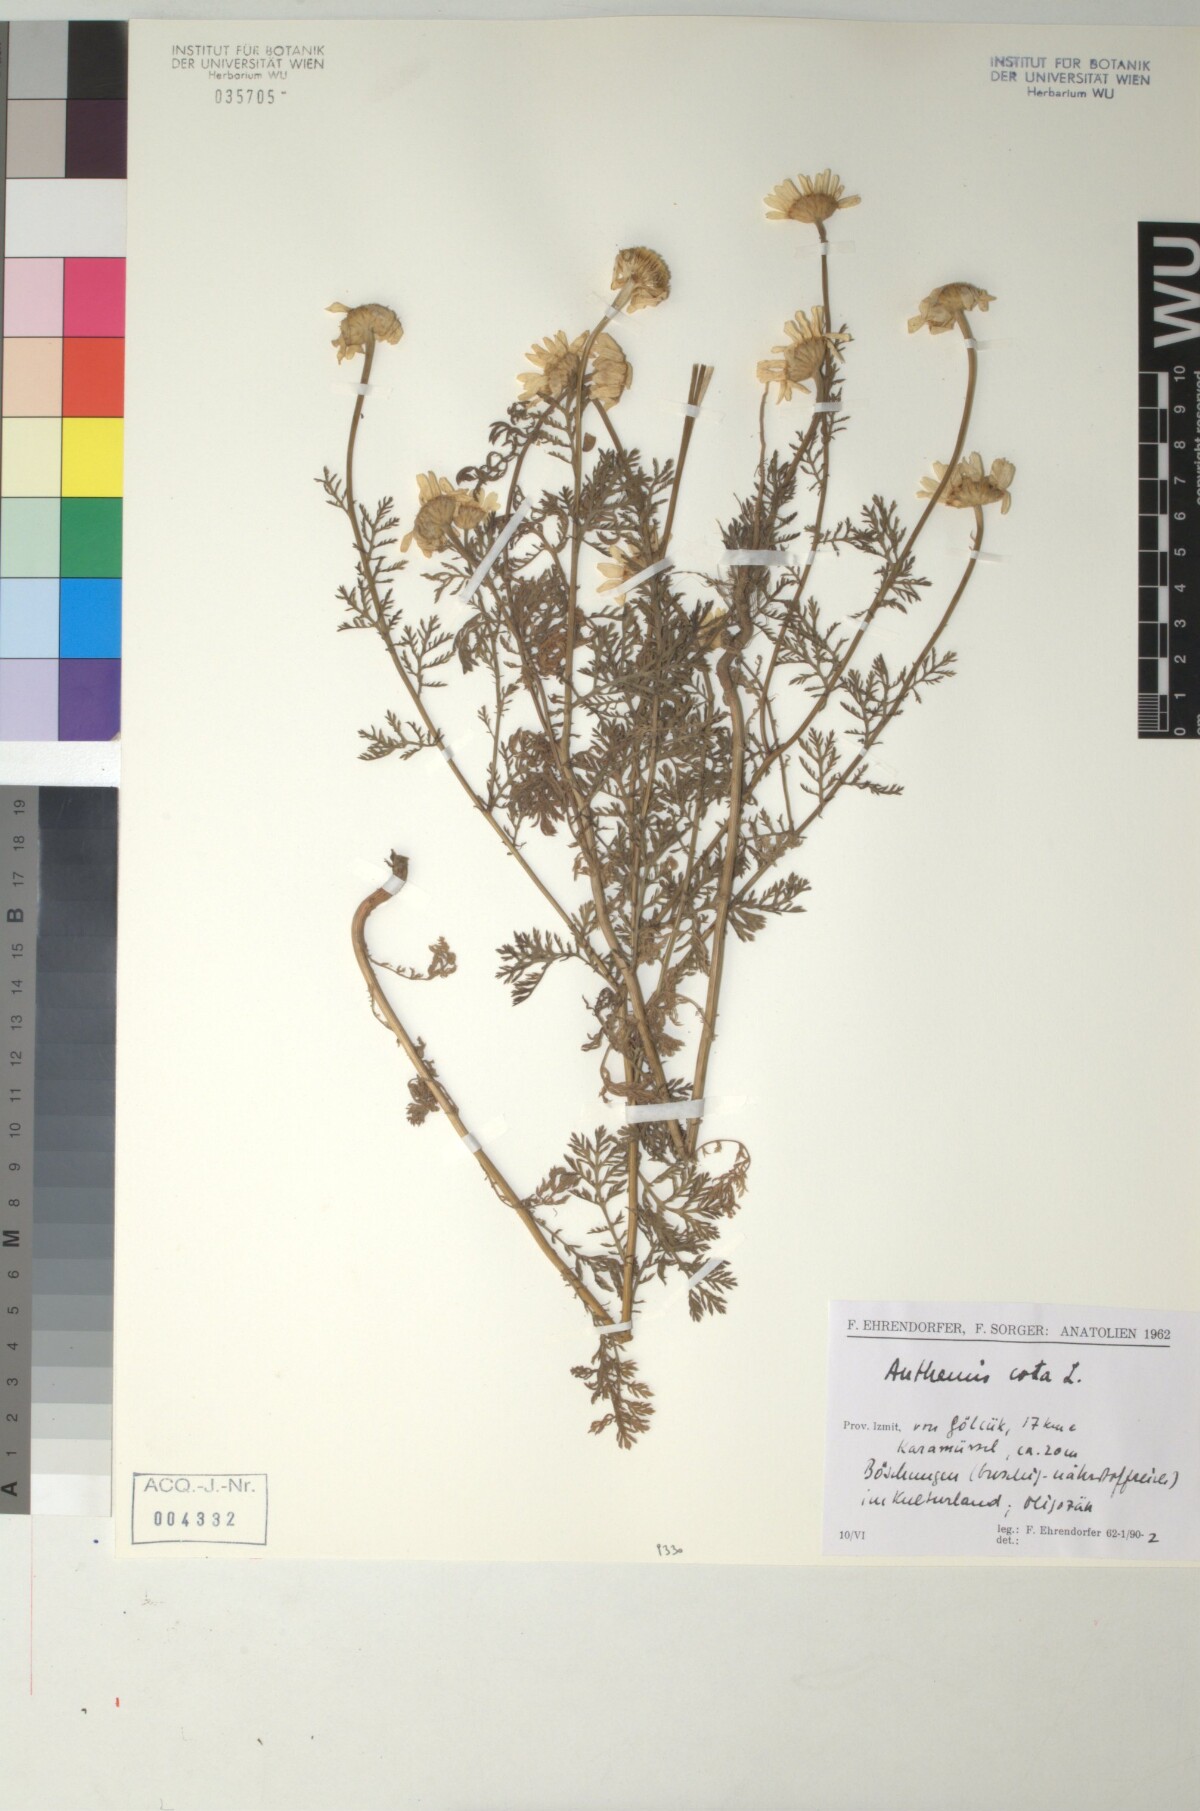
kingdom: Plantae
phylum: Tracheophyta
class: Magnoliopsida
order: Asterales
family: Asteraceae
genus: Cota
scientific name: Cota altissima
